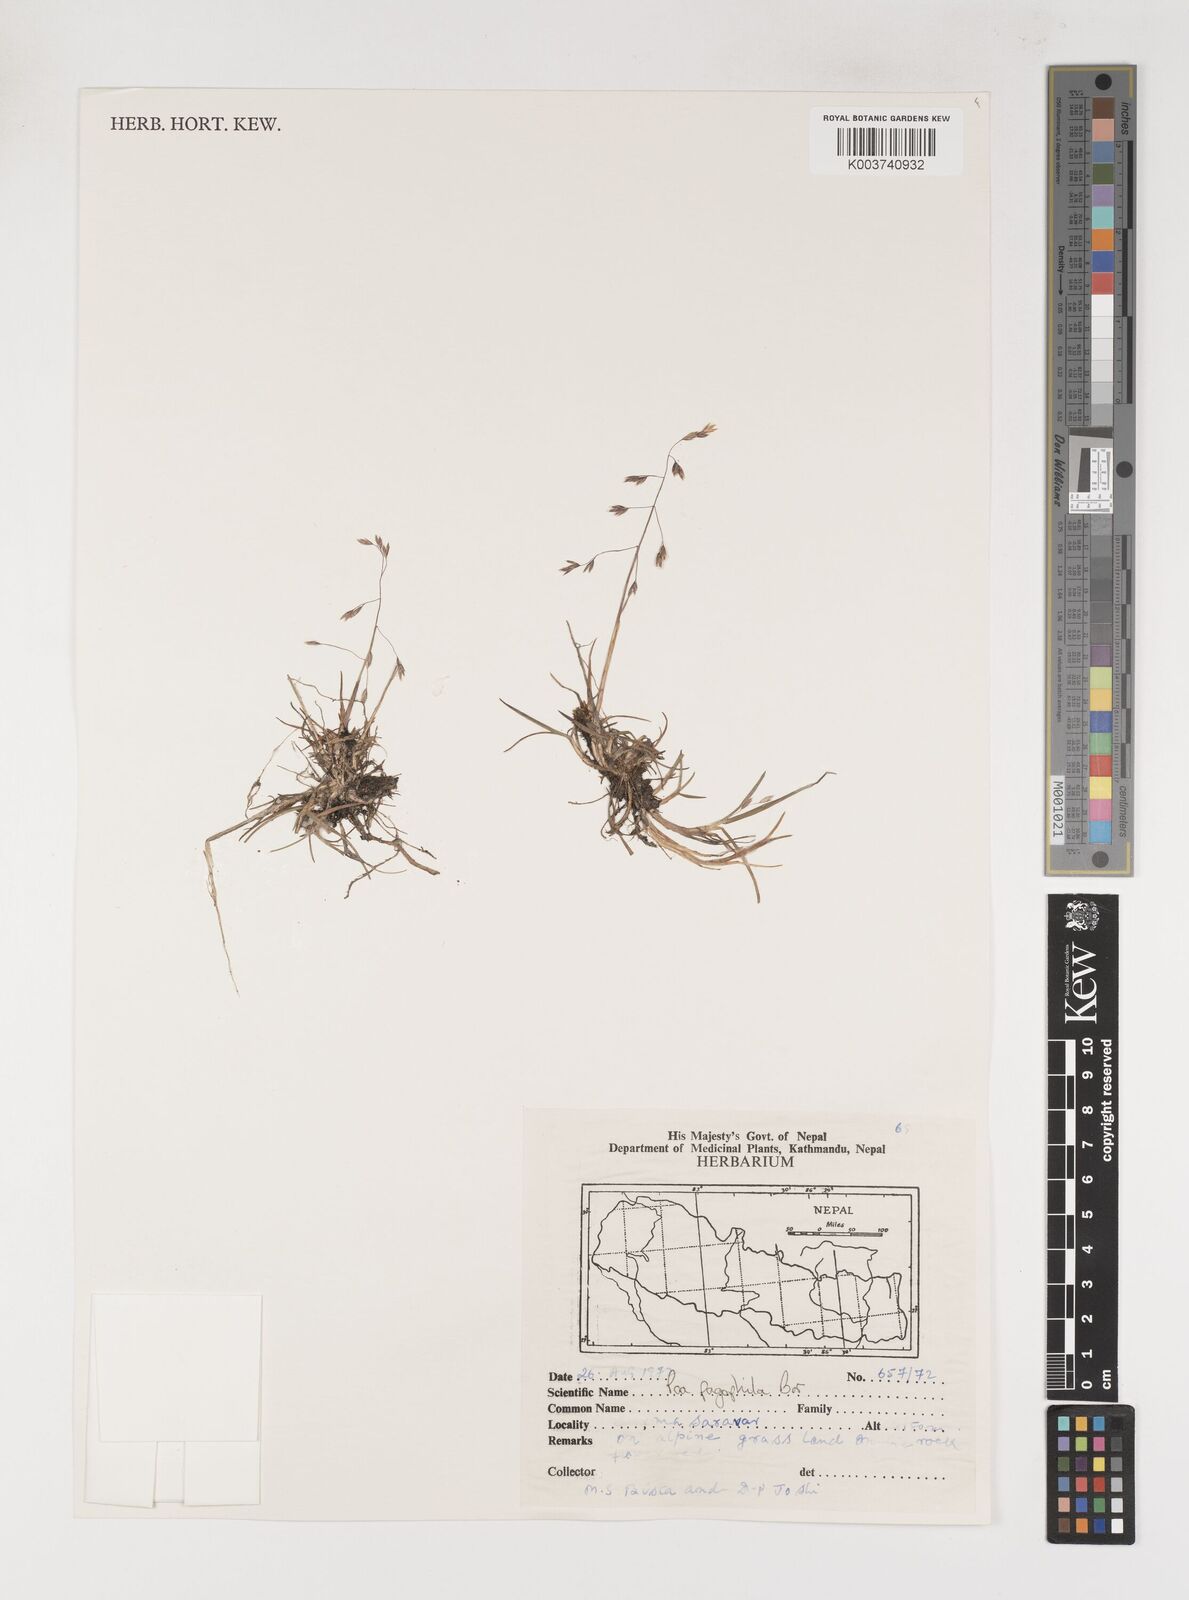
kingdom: Plantae
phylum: Tracheophyta
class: Liliopsida
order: Poales
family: Poaceae
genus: Poa
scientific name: Poa pagophila
